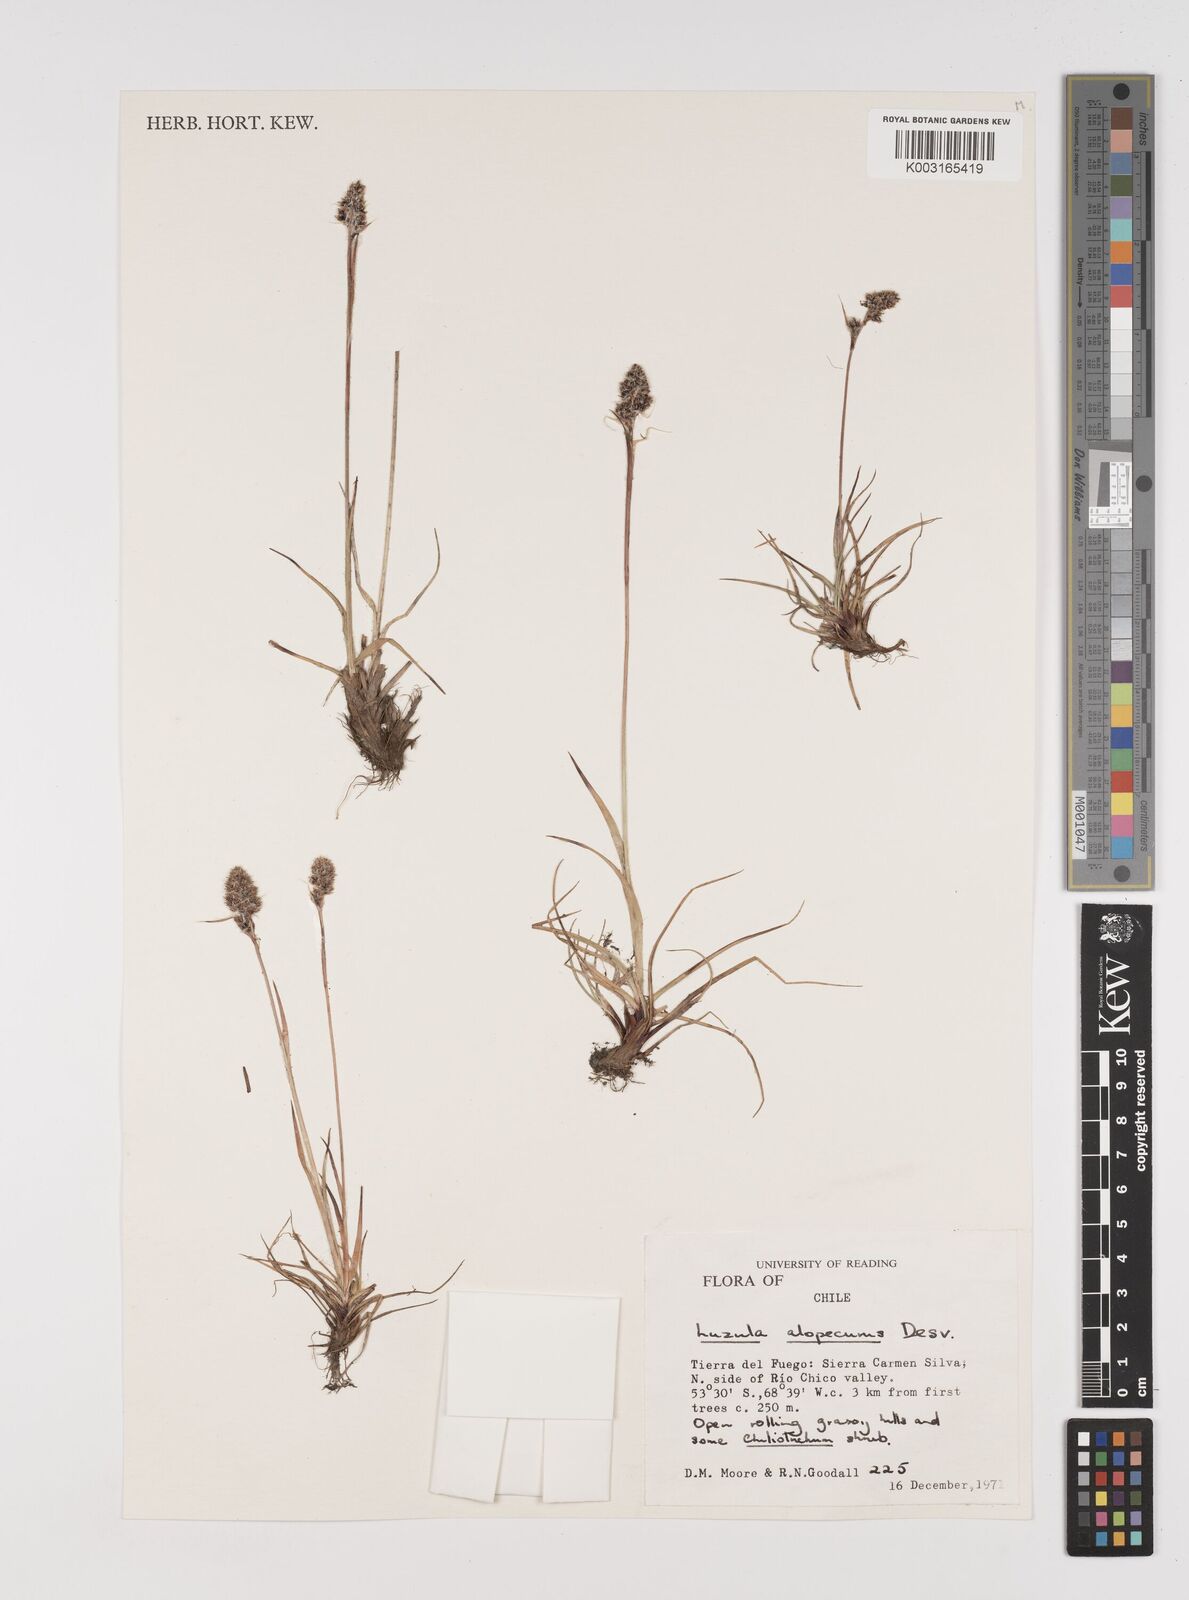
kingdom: Plantae
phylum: Tracheophyta
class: Liliopsida
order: Poales
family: Juncaceae
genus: Luzula
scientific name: Luzula alopecurus
